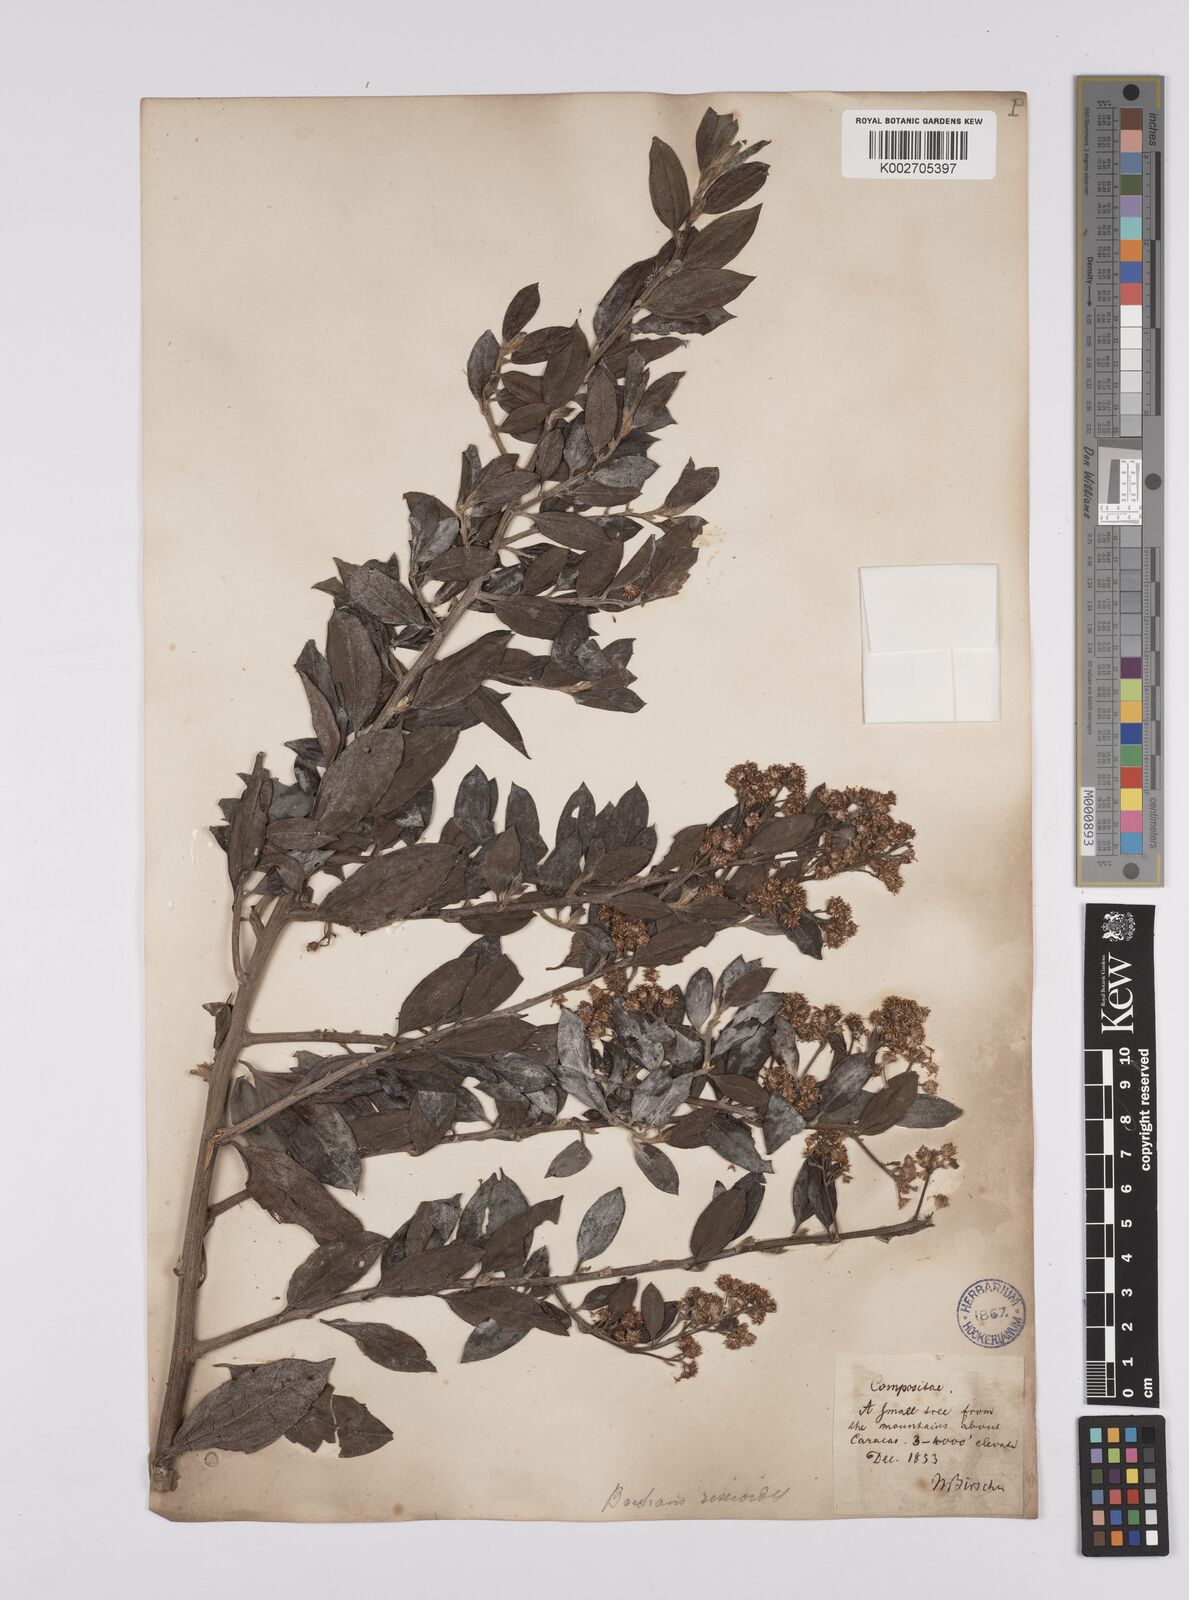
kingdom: Plantae
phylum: Tracheophyta
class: Magnoliopsida
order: Asterales
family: Asteraceae
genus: Baccharis
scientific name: Baccharis trinervis
